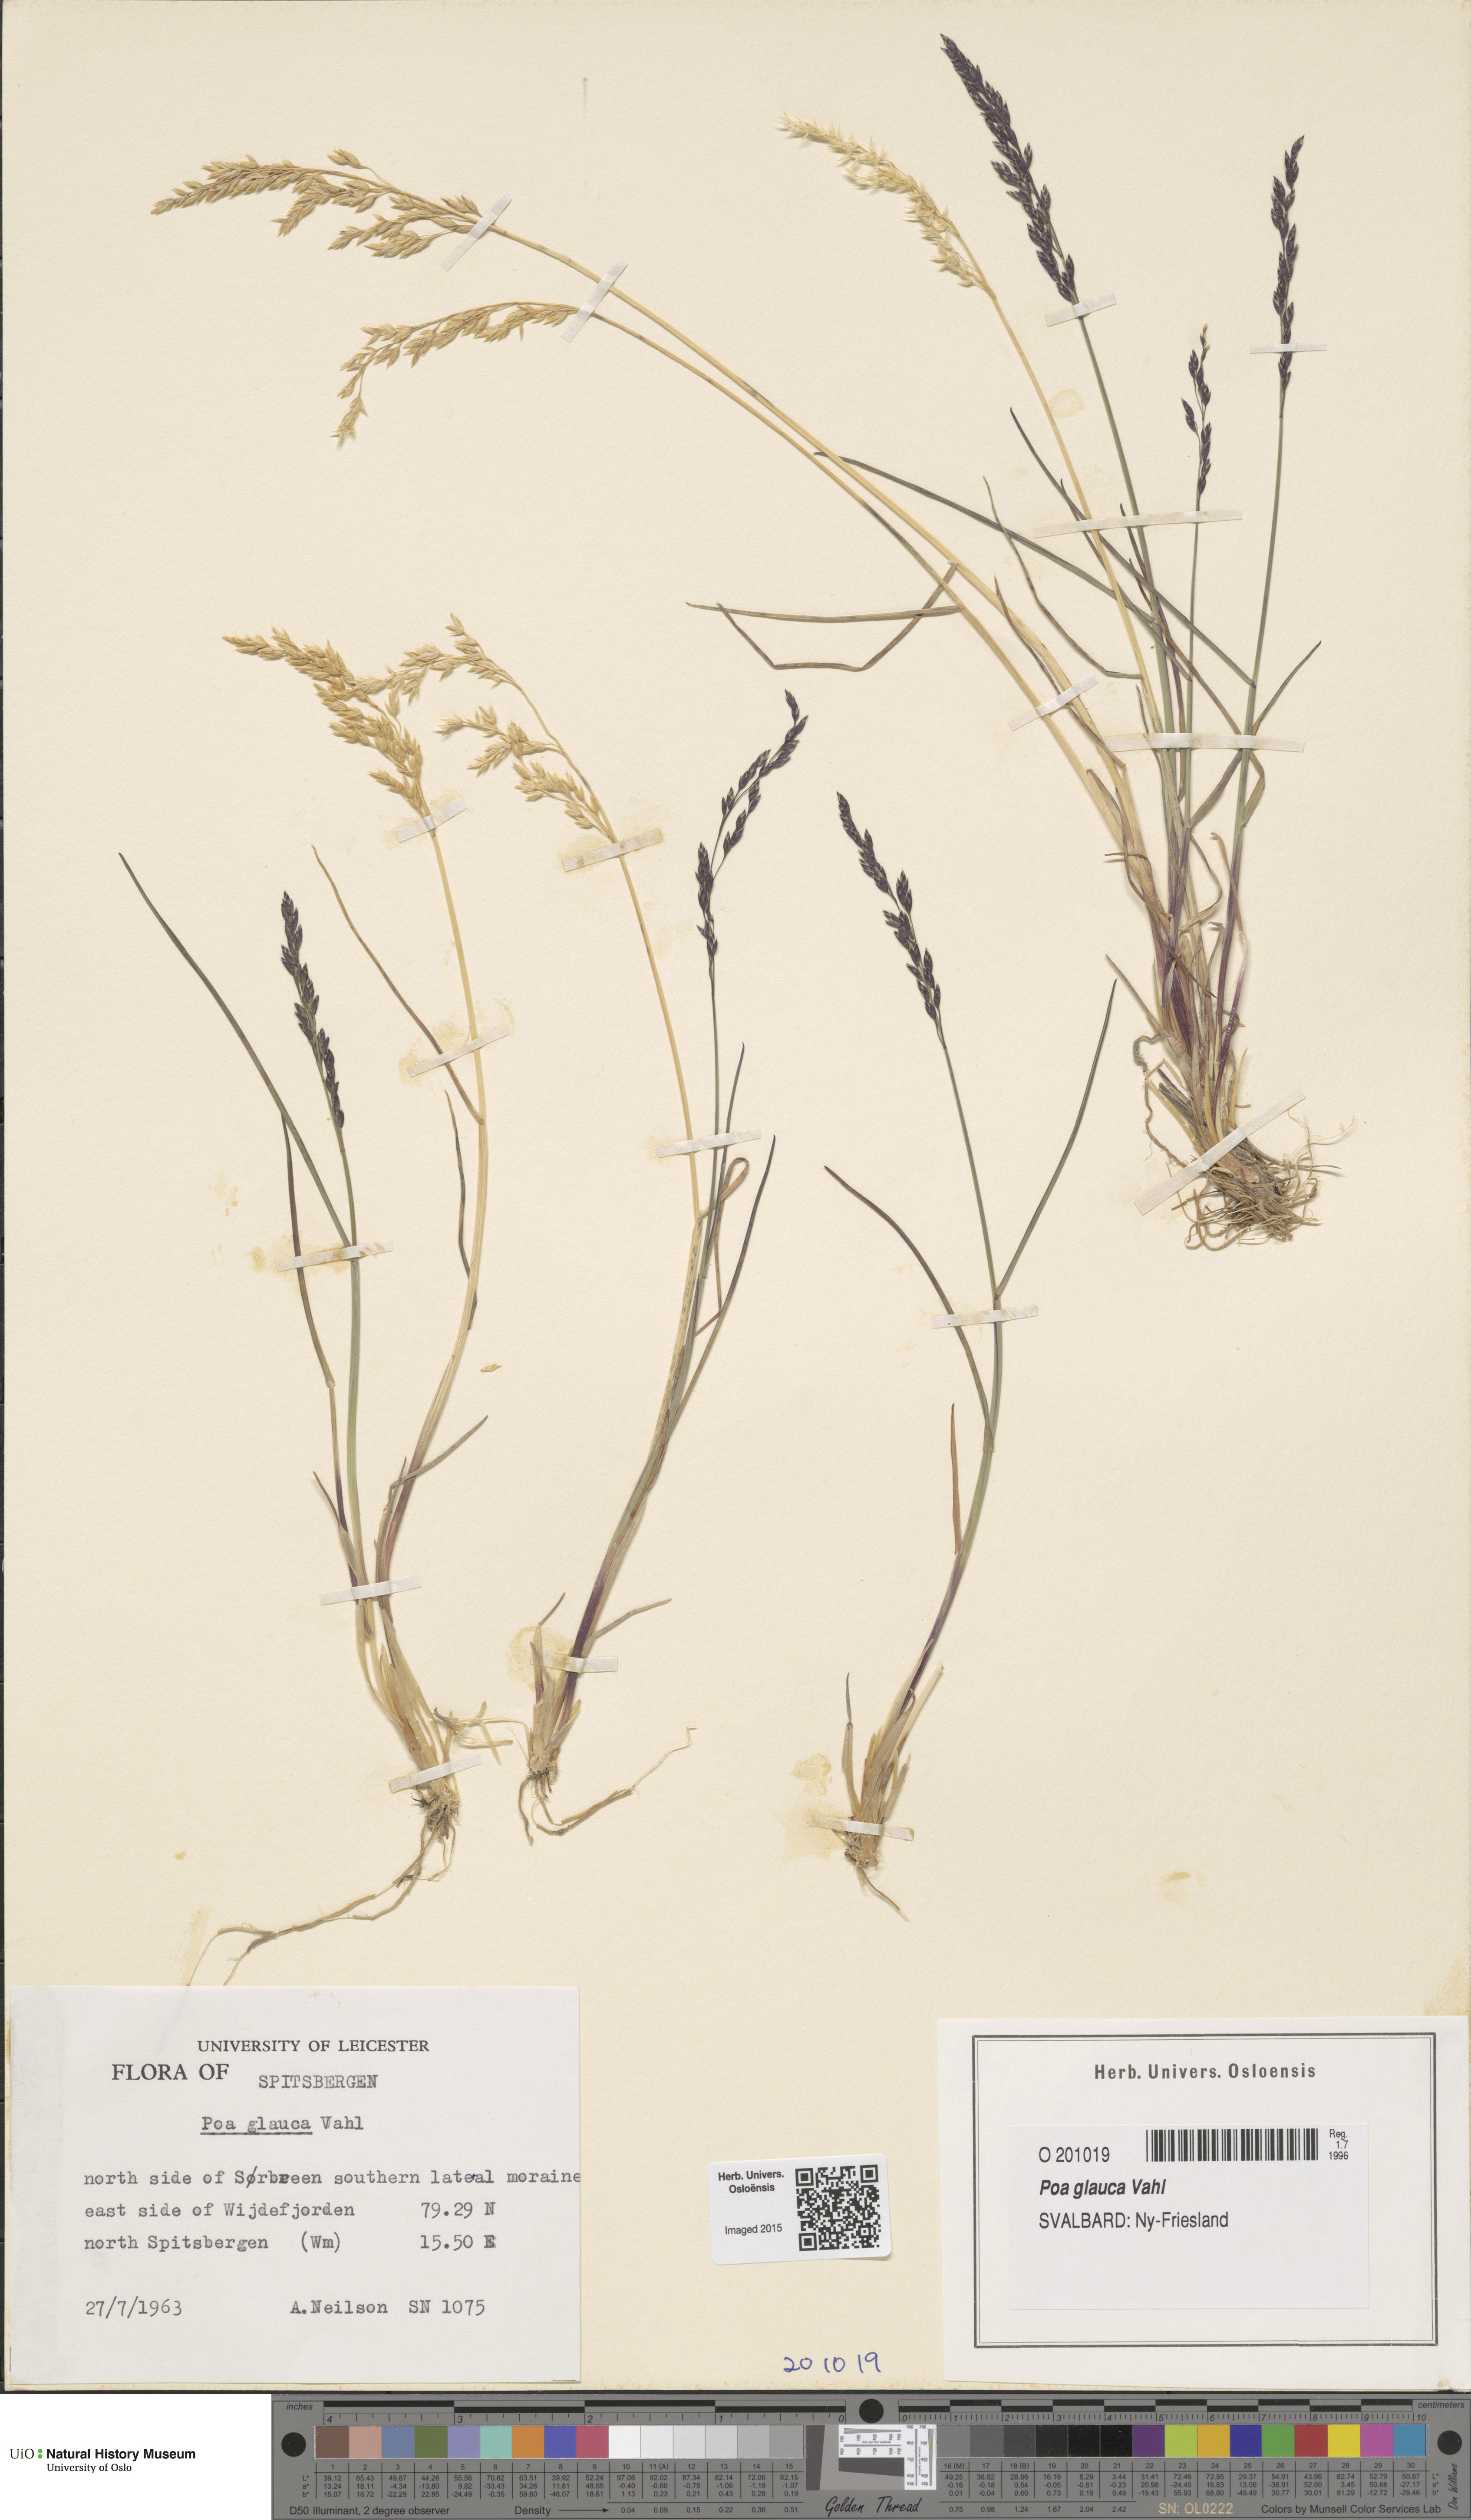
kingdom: Plantae
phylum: Tracheophyta
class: Liliopsida
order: Poales
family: Poaceae
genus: Poa
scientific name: Poa glauca
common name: Glaucous bluegrass
